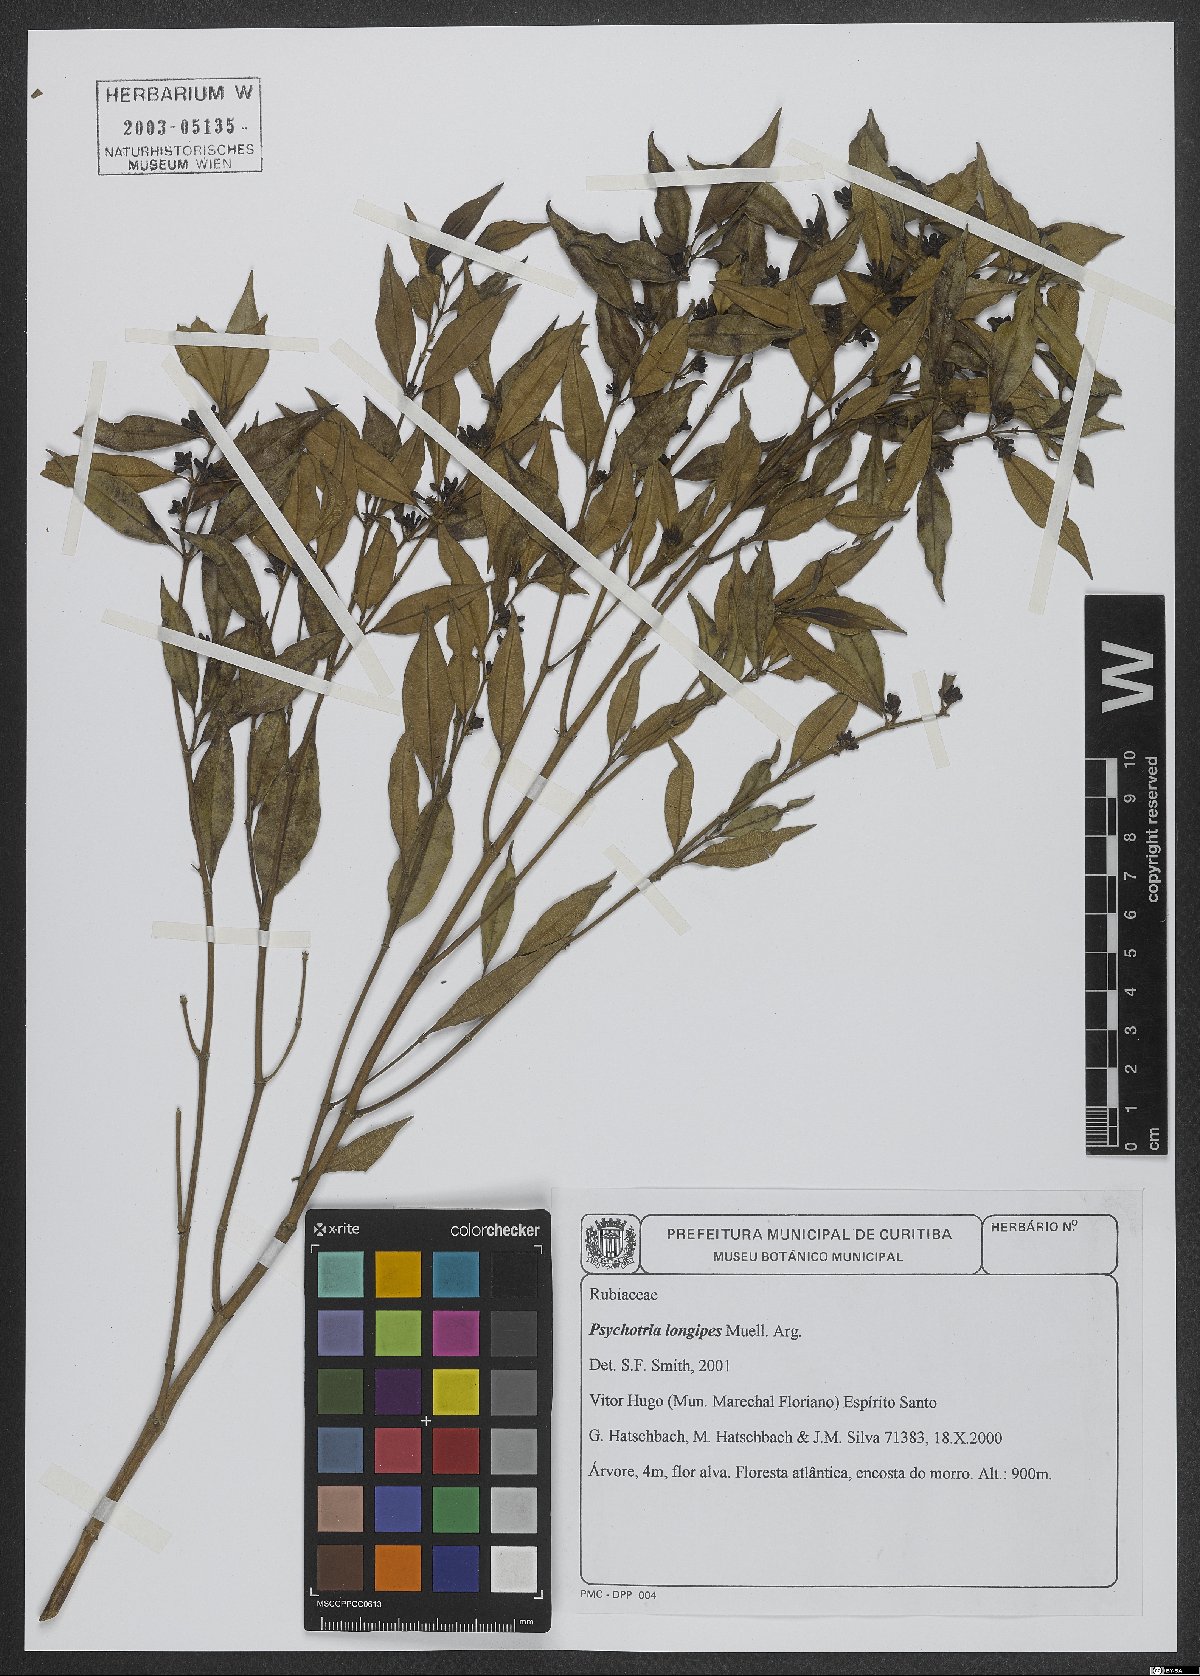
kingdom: Plantae
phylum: Tracheophyta
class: Magnoliopsida
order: Gentianales
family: Rubiaceae
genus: Palicourea
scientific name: Palicourea jungiana
